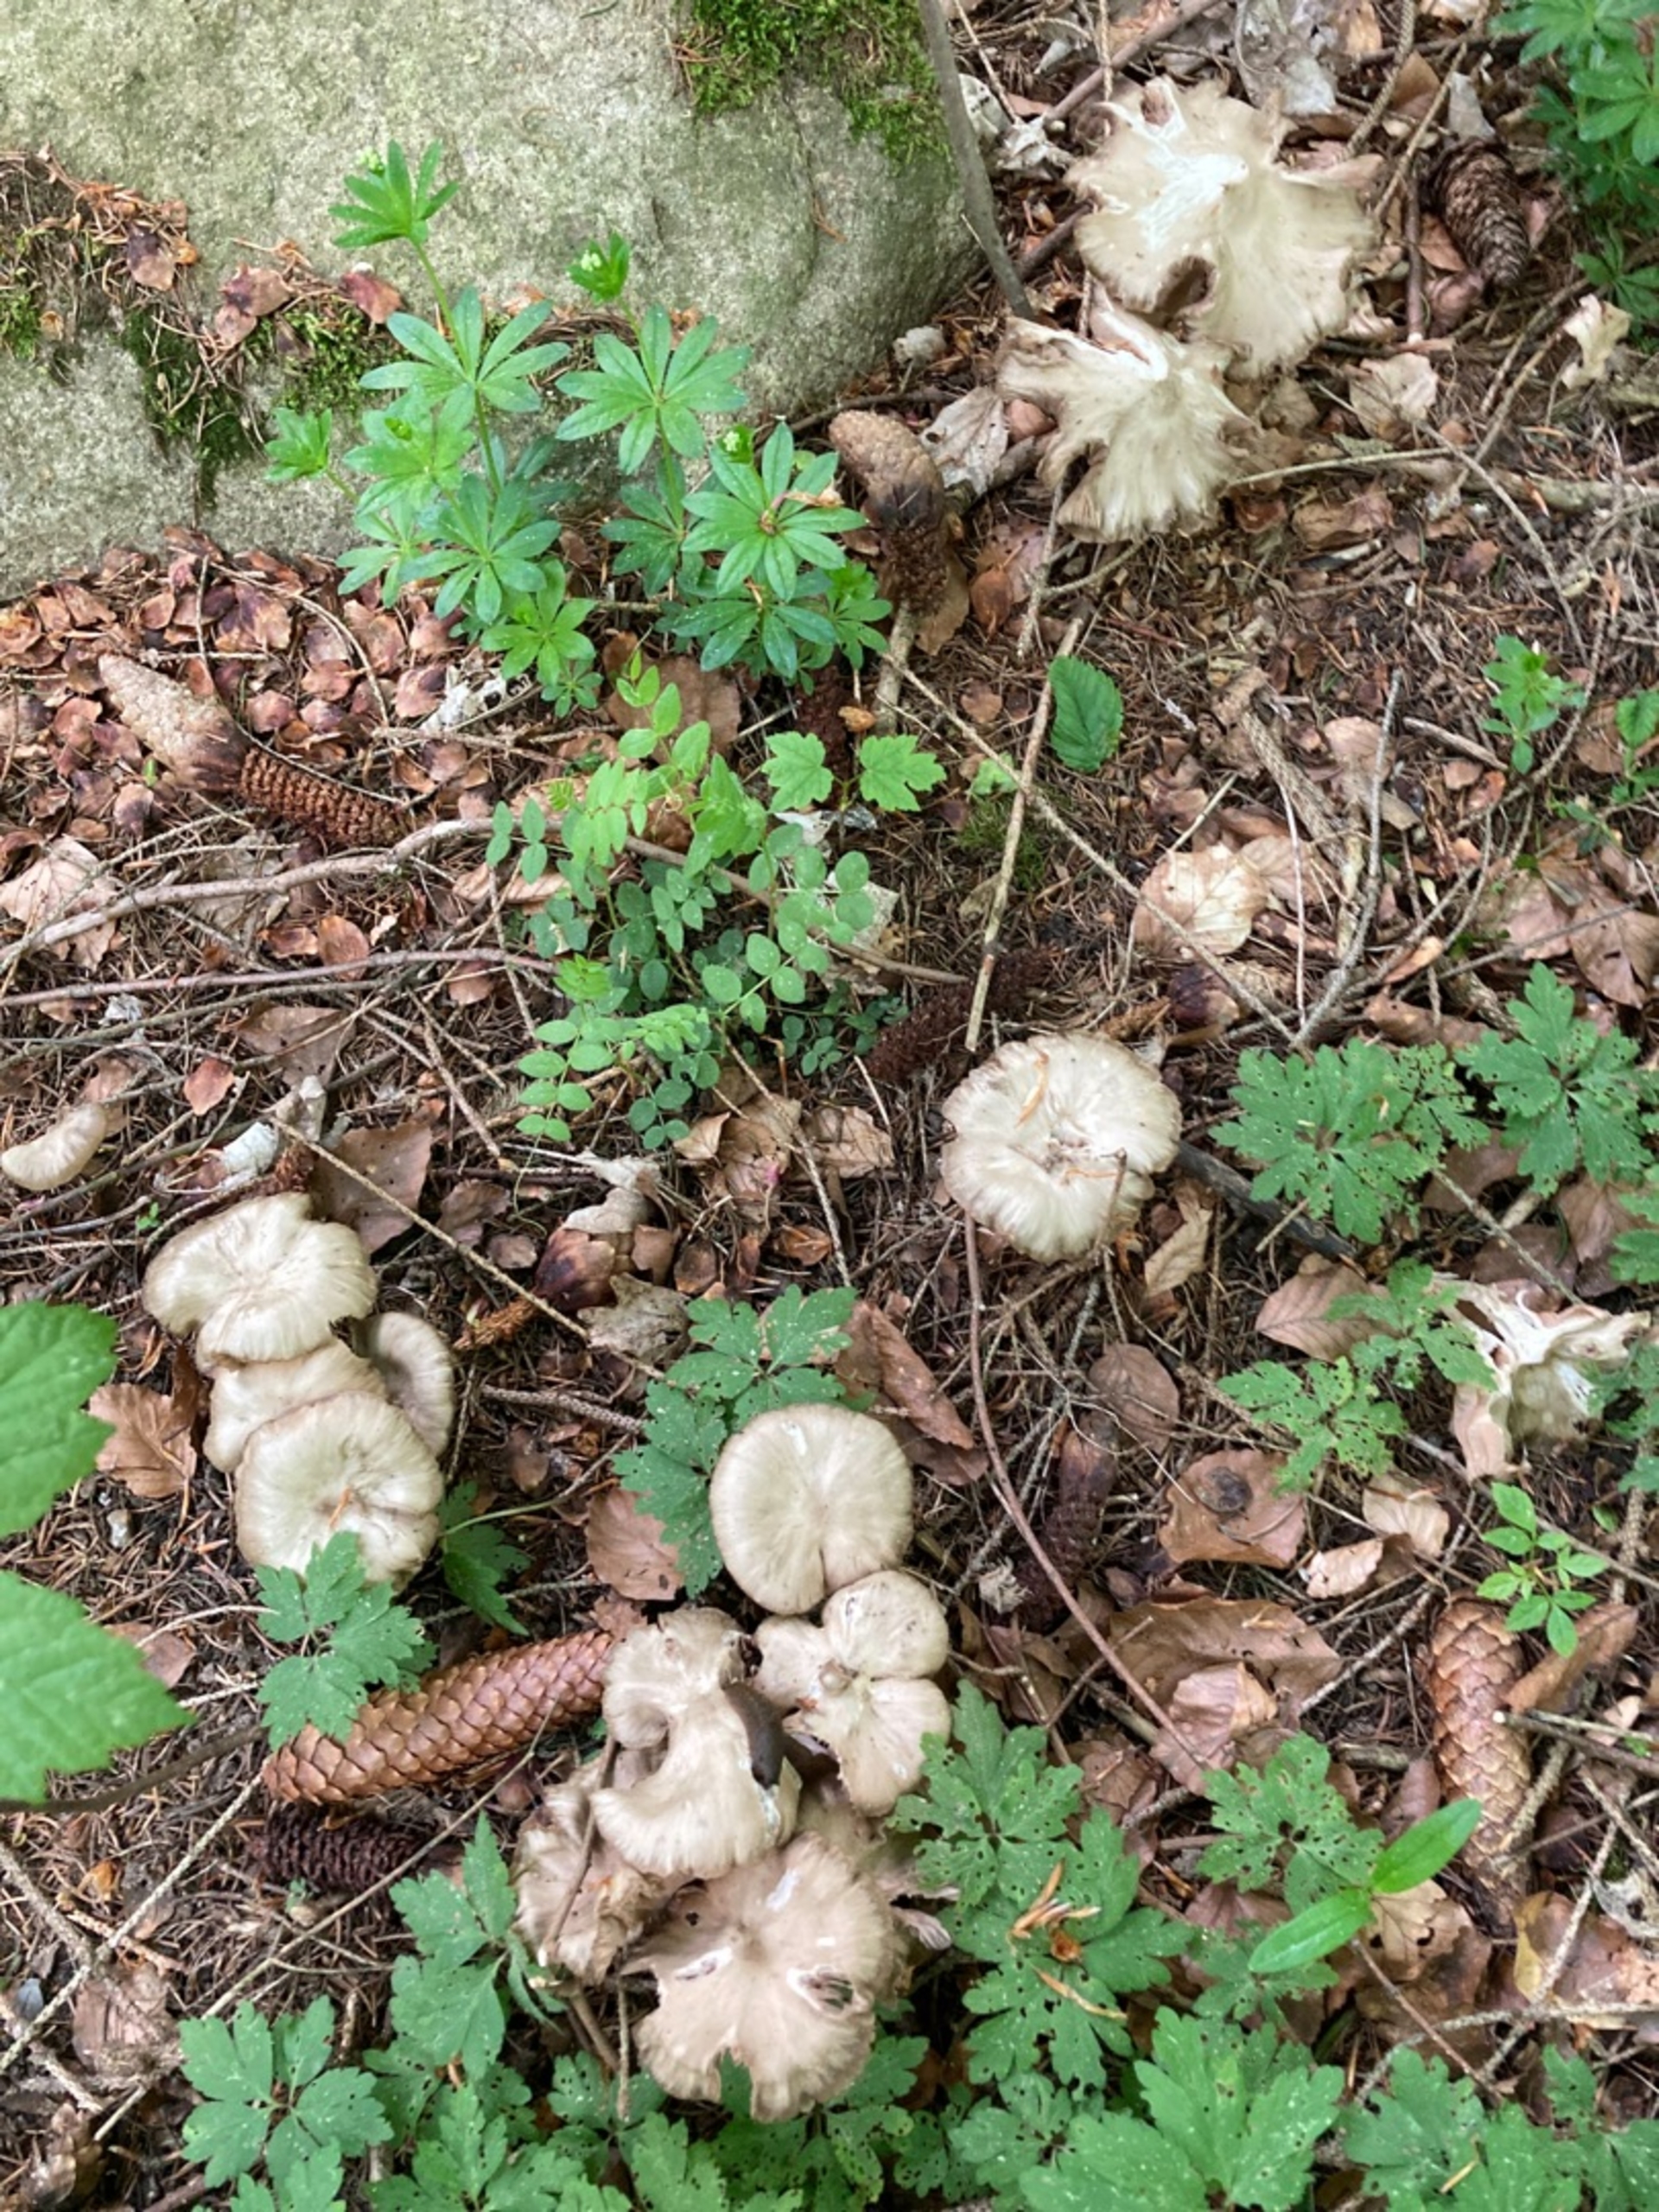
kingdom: Fungi
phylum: Basidiomycota
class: Agaricomycetes
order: Agaricales
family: Entolomataceae
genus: Entoloma
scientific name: Entoloma
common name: Rødblad
